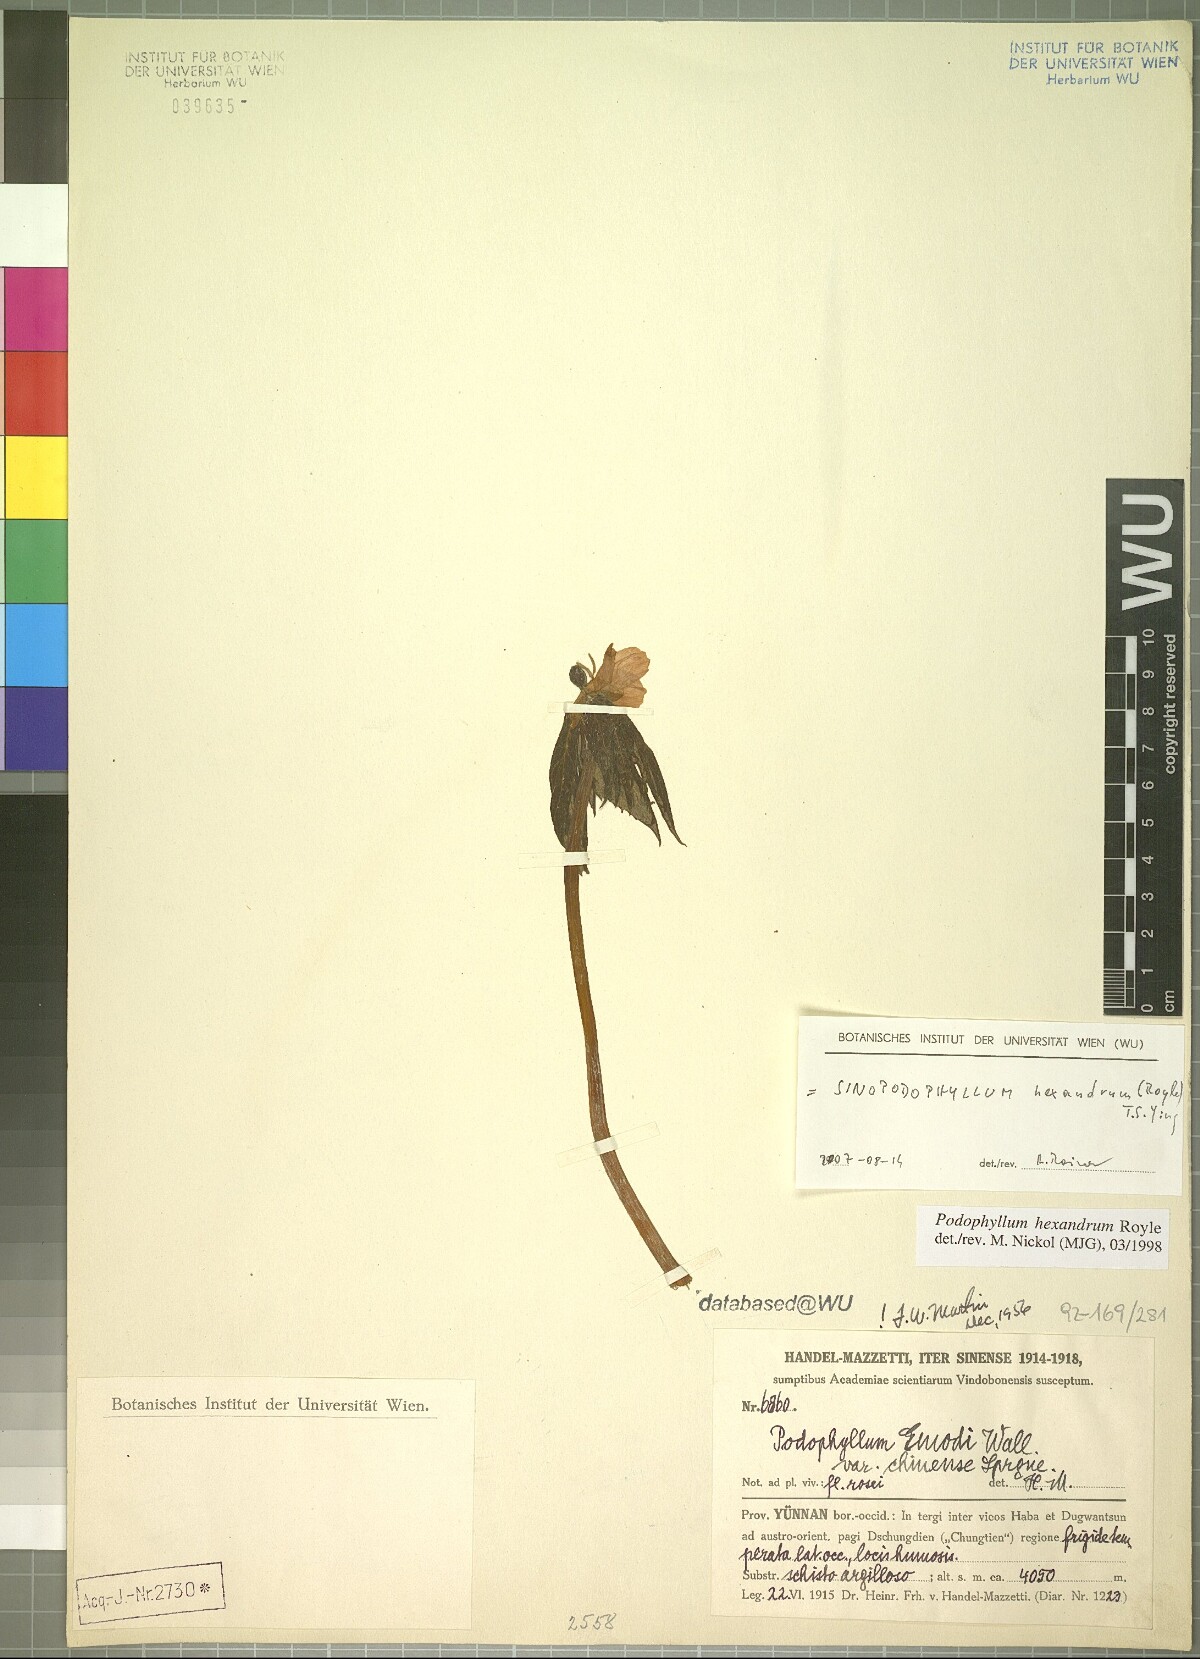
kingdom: Plantae
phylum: Tracheophyta
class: Magnoliopsida
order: Ranunculales
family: Berberidaceae
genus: Sinopodophyllum
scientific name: Sinopodophyllum hexandrum
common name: Himalayan may-apple
